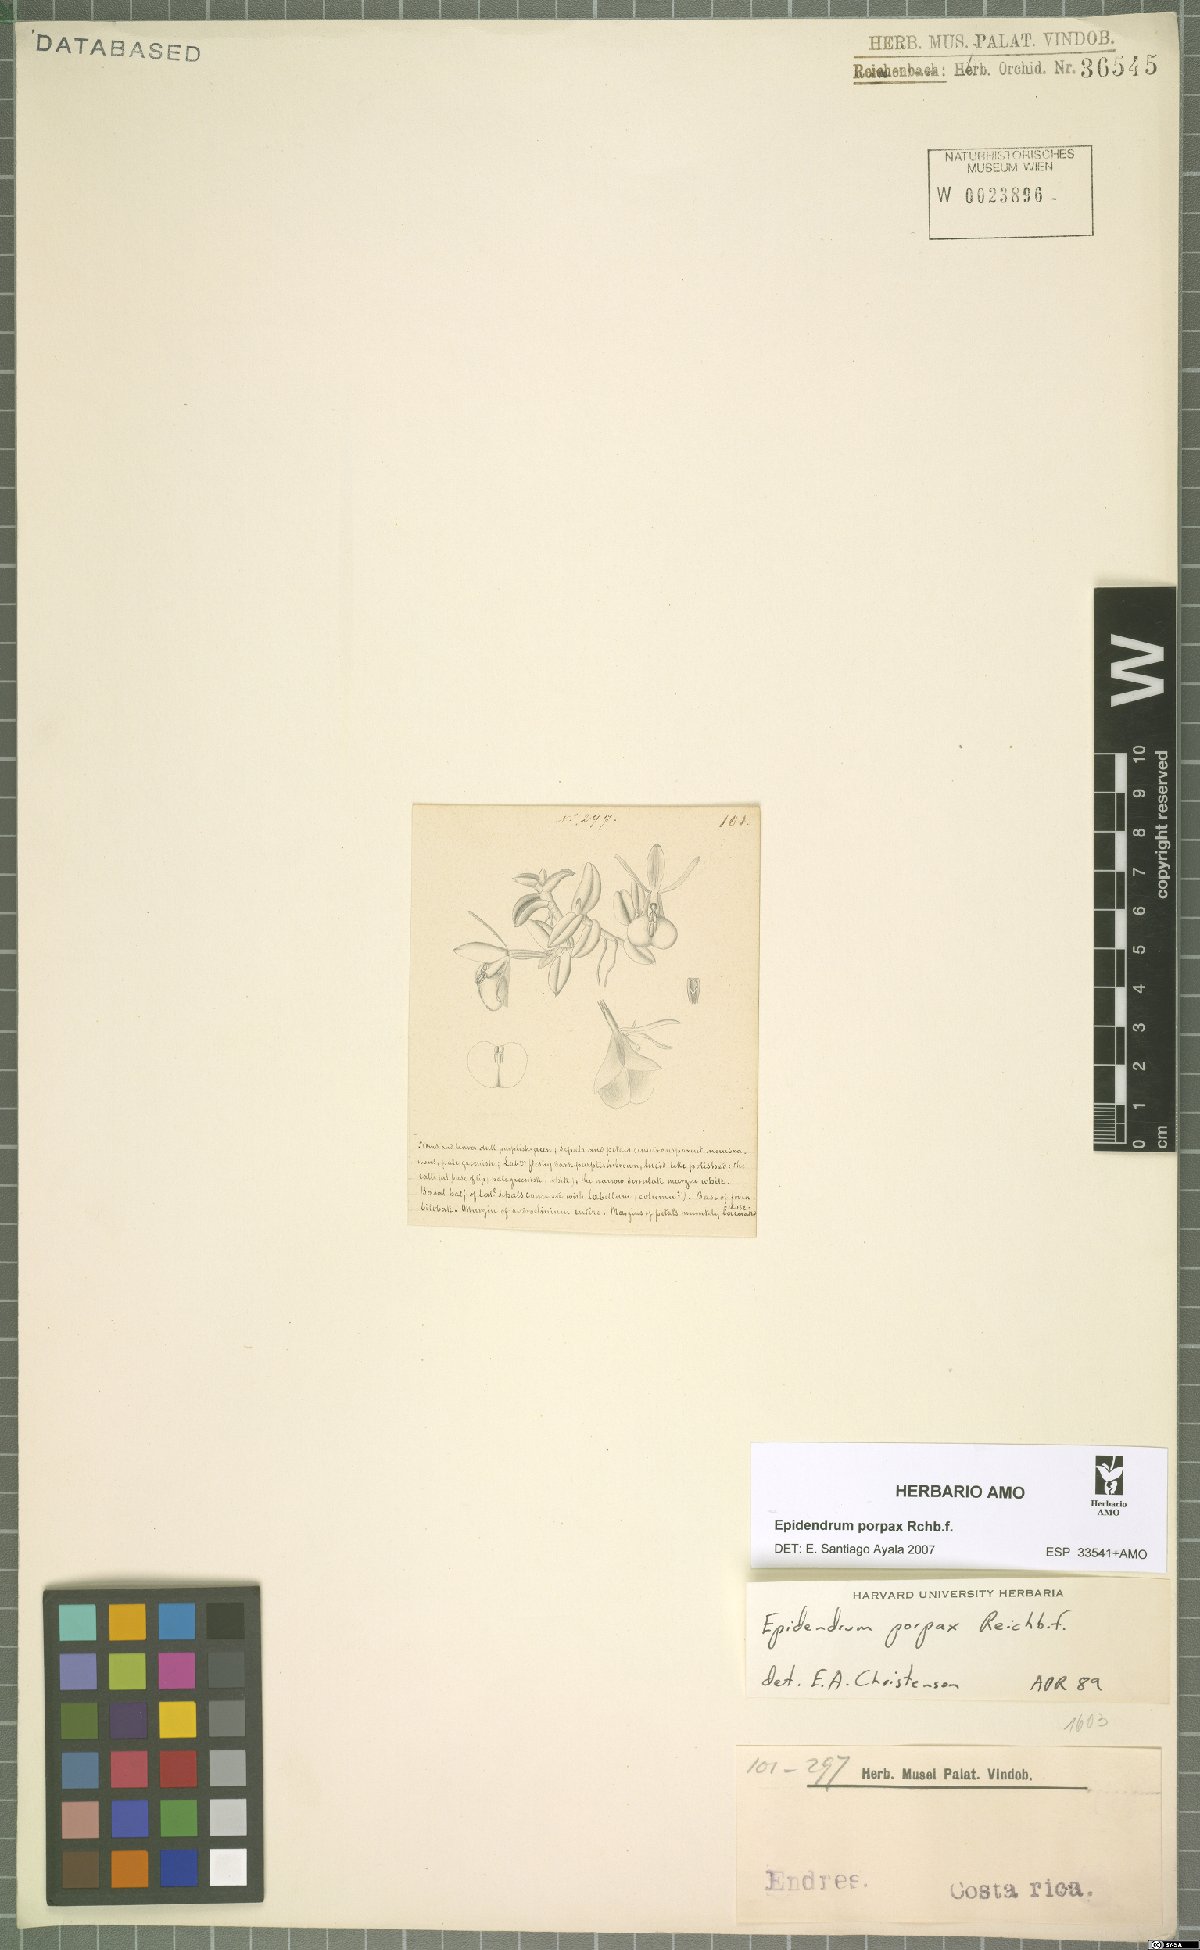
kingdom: Plantae
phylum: Tracheophyta
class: Liliopsida
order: Asparagales
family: Orchidaceae
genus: Epidendrum
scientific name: Epidendrum porpax
